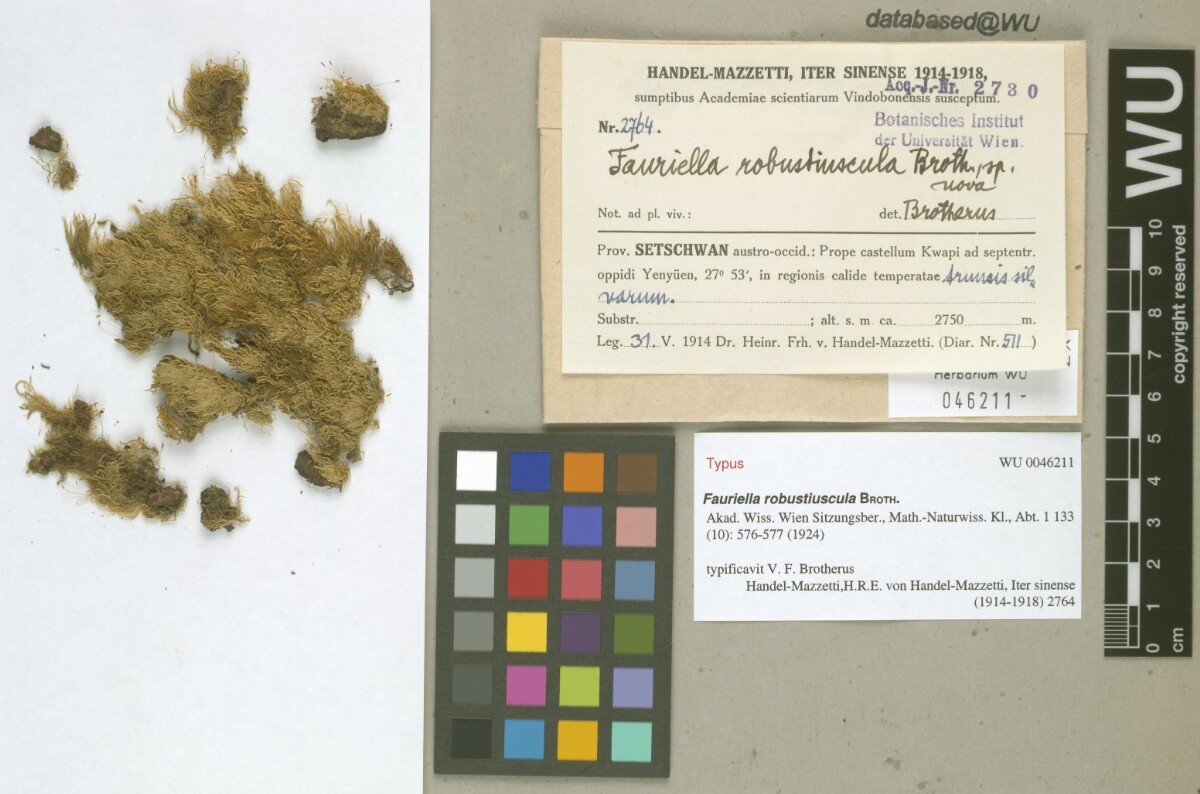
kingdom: Plantae
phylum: Bryophyta
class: Bryopsida
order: Hypnales
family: Thuidiaceae
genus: Fauriella
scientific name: Fauriella robustiuscula
